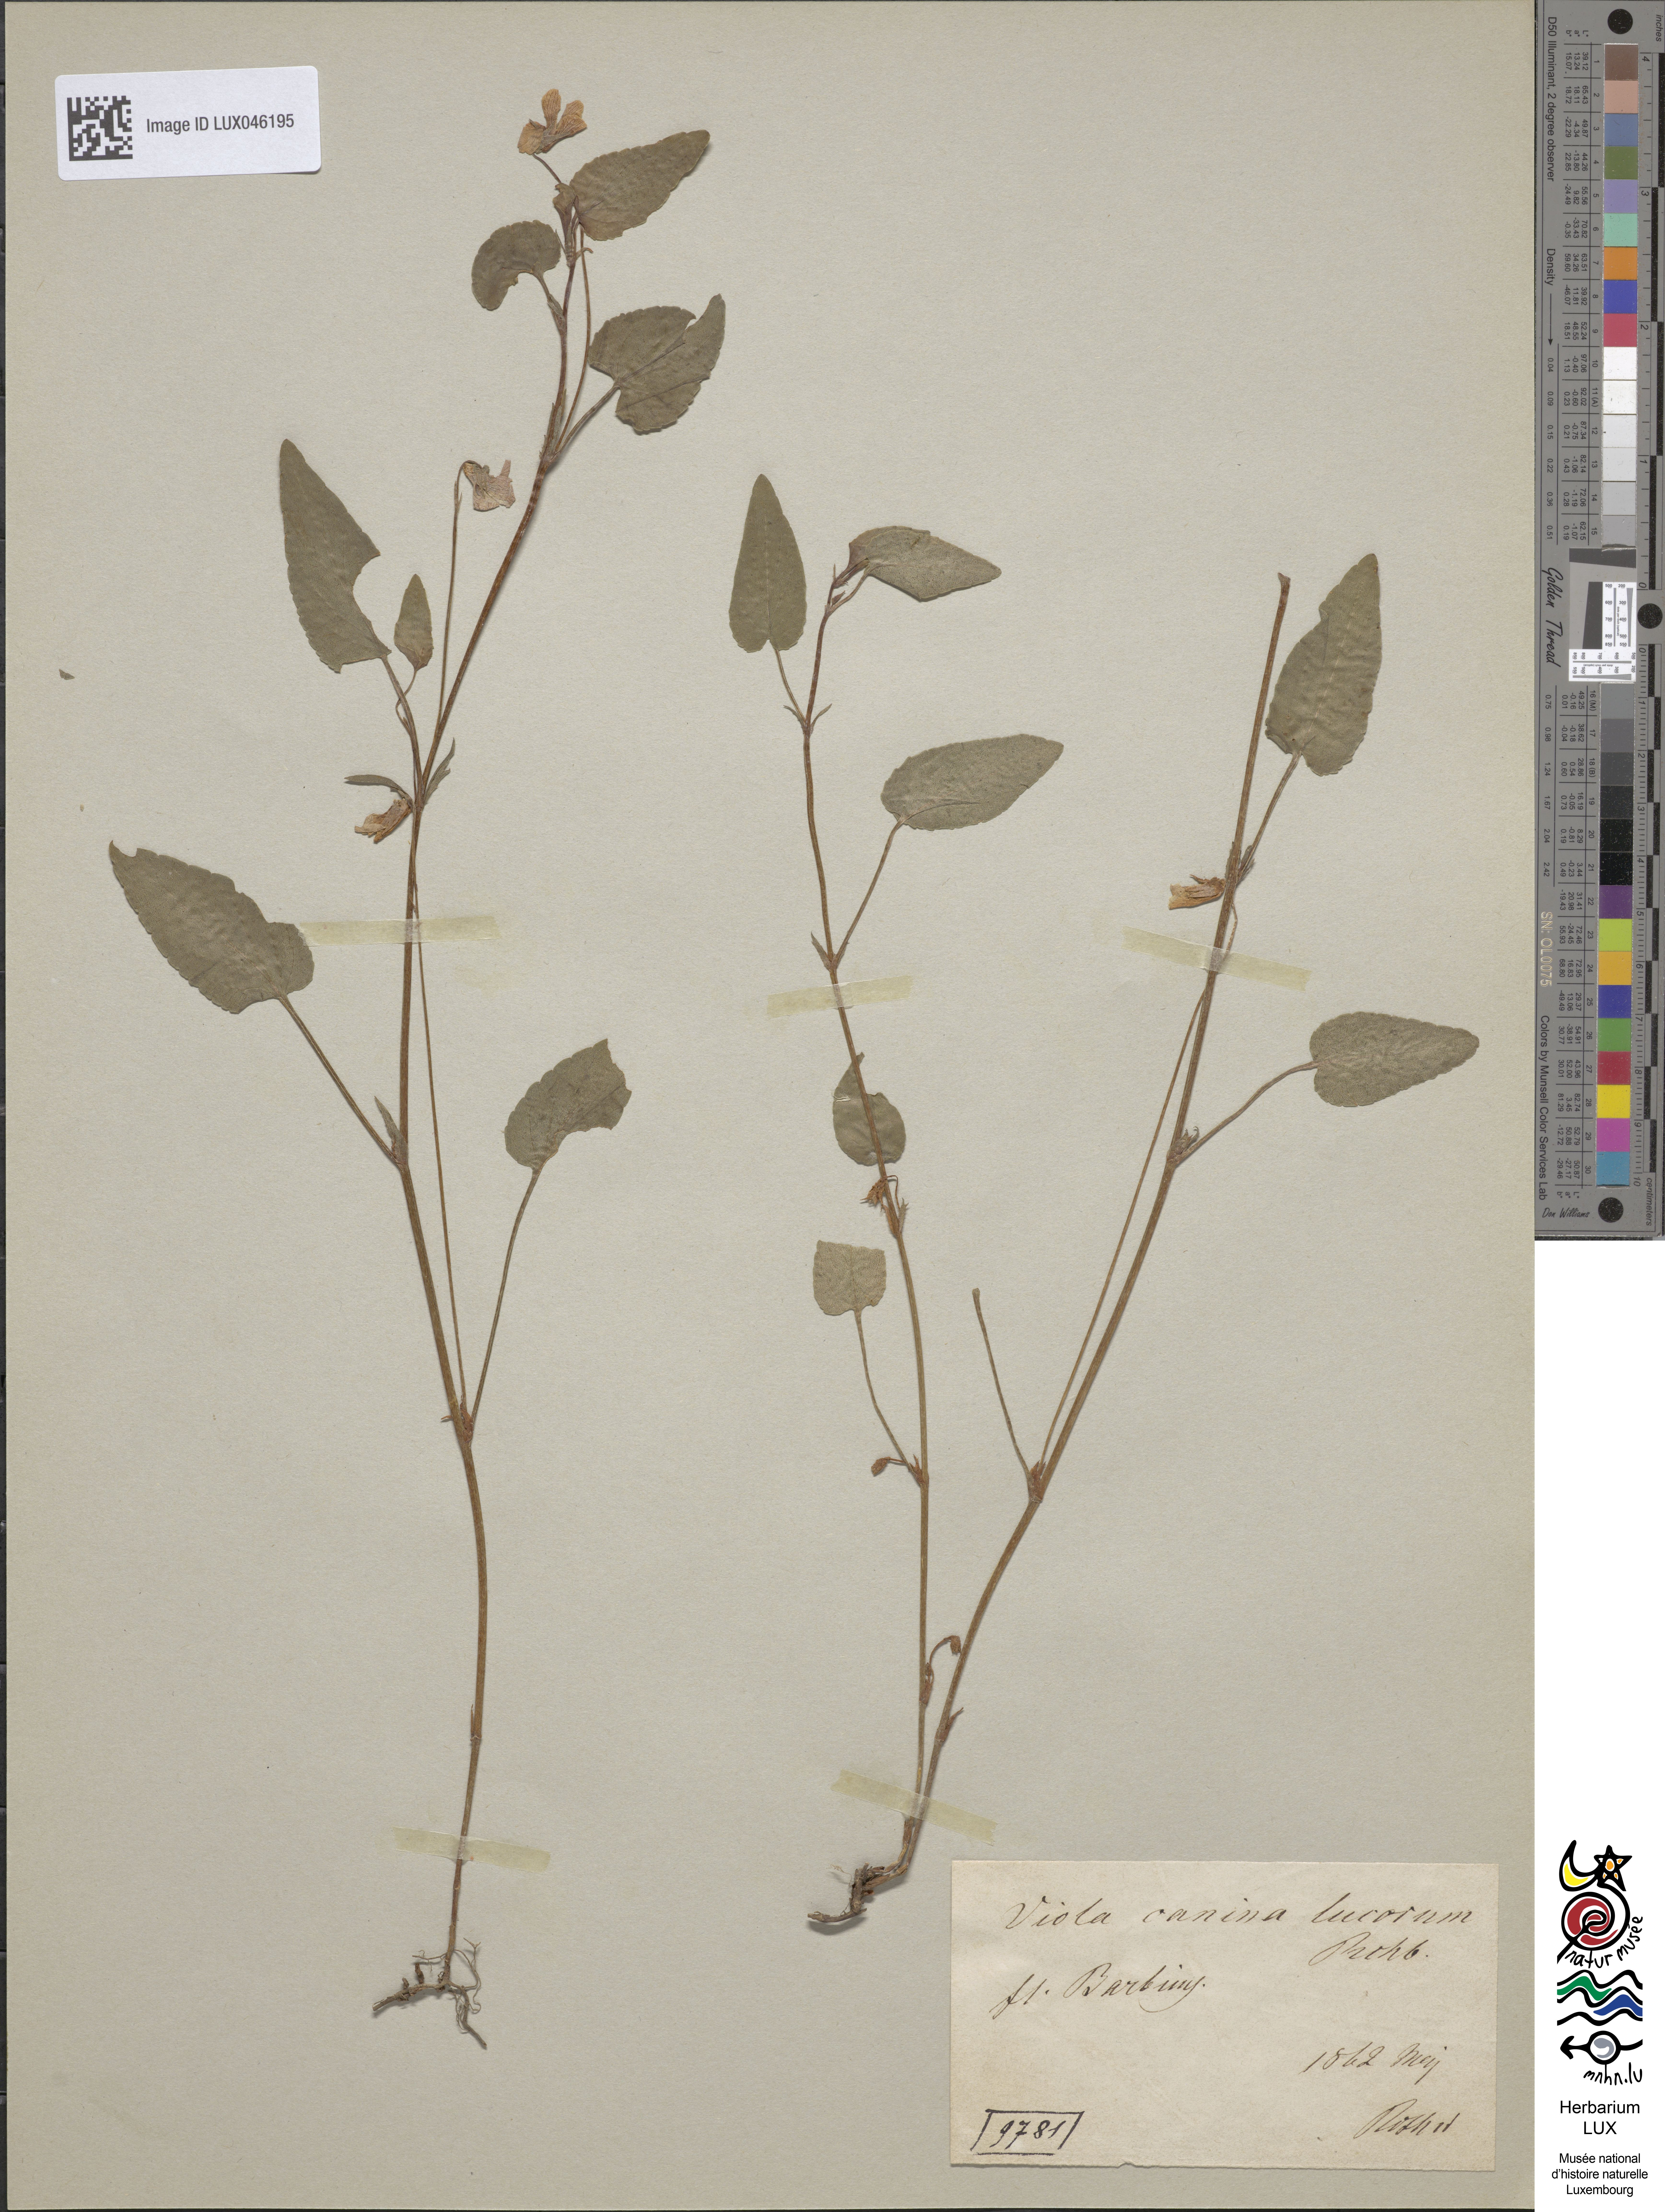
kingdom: Plantae
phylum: Tracheophyta
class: Magnoliopsida
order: Malpighiales
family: Violaceae
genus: Viola
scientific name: Viola canina
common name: Heath dog-violet
